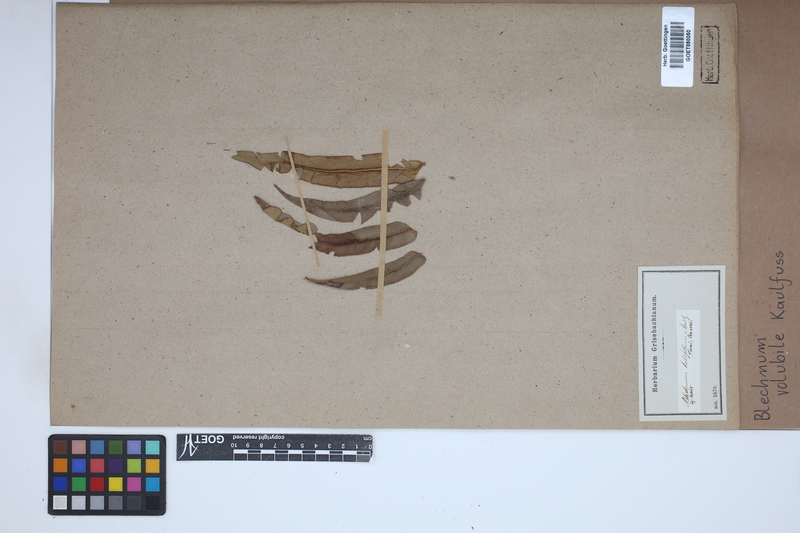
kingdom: Plantae
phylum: Tracheophyta
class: Polypodiopsida
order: Polypodiales
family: Blechnaceae
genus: Salpichlaena
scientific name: Salpichlaena volubilis
